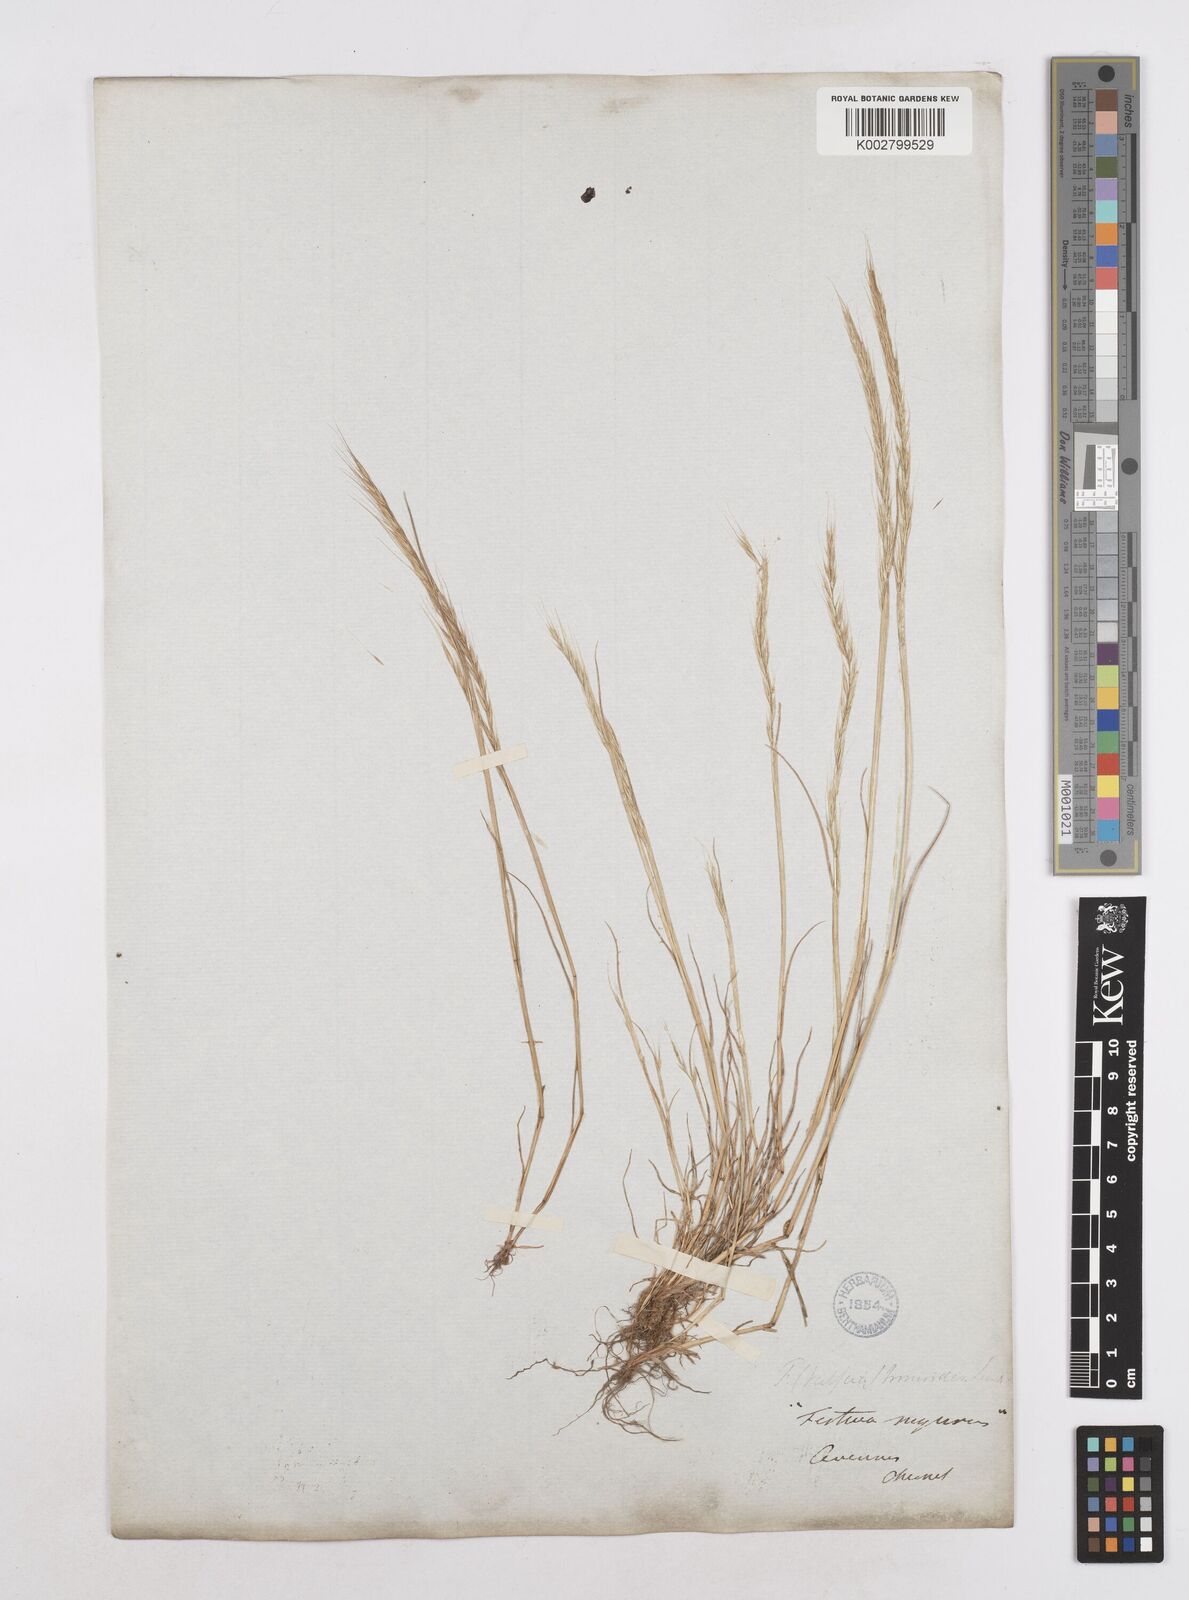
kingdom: Plantae
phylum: Tracheophyta
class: Liliopsida
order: Poales
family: Poaceae
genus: Festuca
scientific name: Festuca myuros
